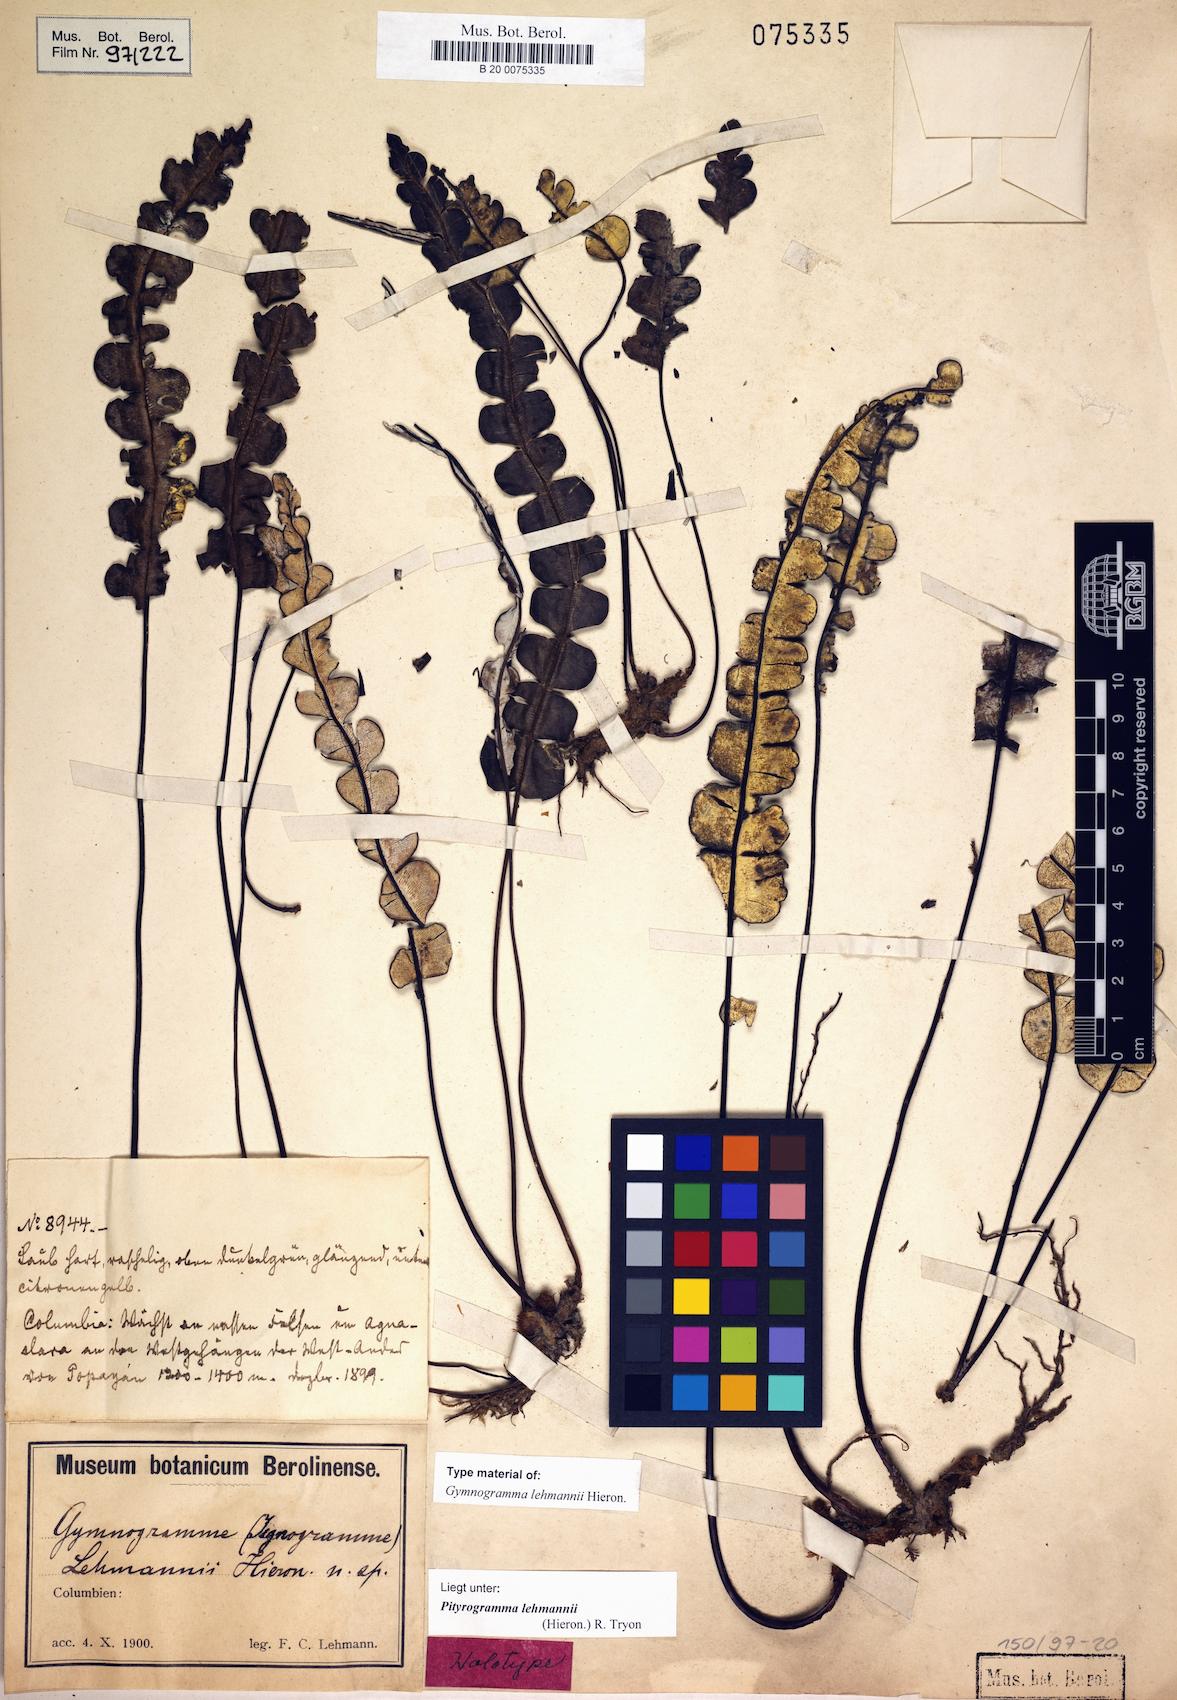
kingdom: Plantae
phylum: Tracheophyta
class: Polypodiopsida
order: Polypodiales
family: Pteridaceae
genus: Pityrogramma
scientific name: Pityrogramma lehmannii
